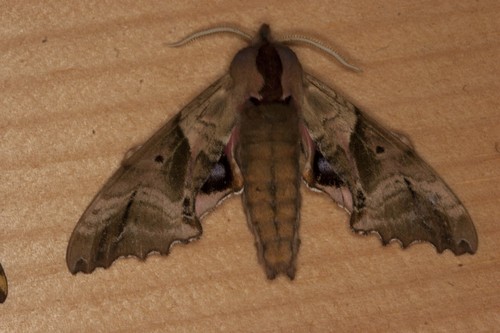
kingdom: Animalia
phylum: Arthropoda
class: Insecta
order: Lepidoptera
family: Sphingidae
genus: Paonias
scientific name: Paonias excaecata
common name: Blind-eyed sphinx
